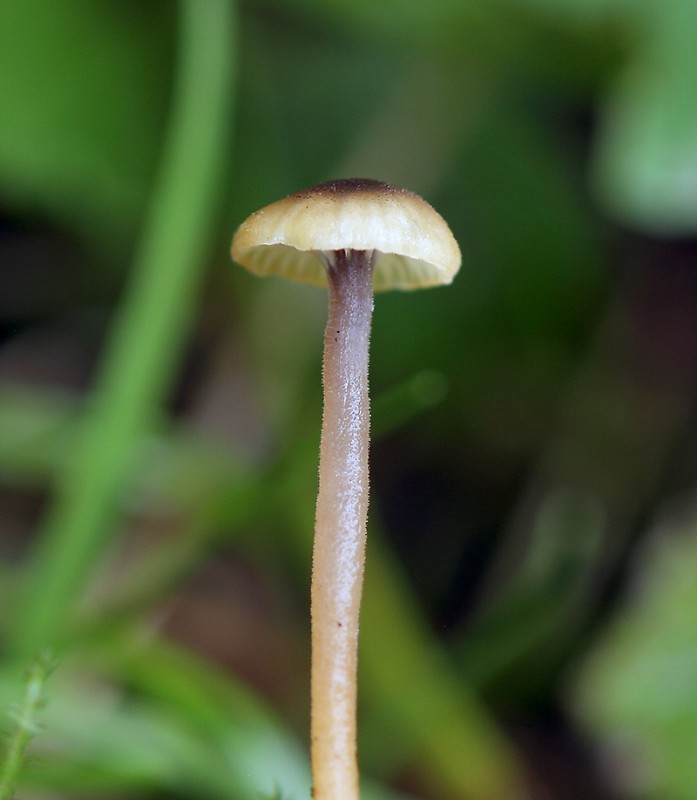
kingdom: Fungi
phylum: Basidiomycota
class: Agaricomycetes
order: Hymenochaetales
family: Rickenellaceae
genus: Rickenella
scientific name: Rickenella swartzii
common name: finstokket mosnavlehat
